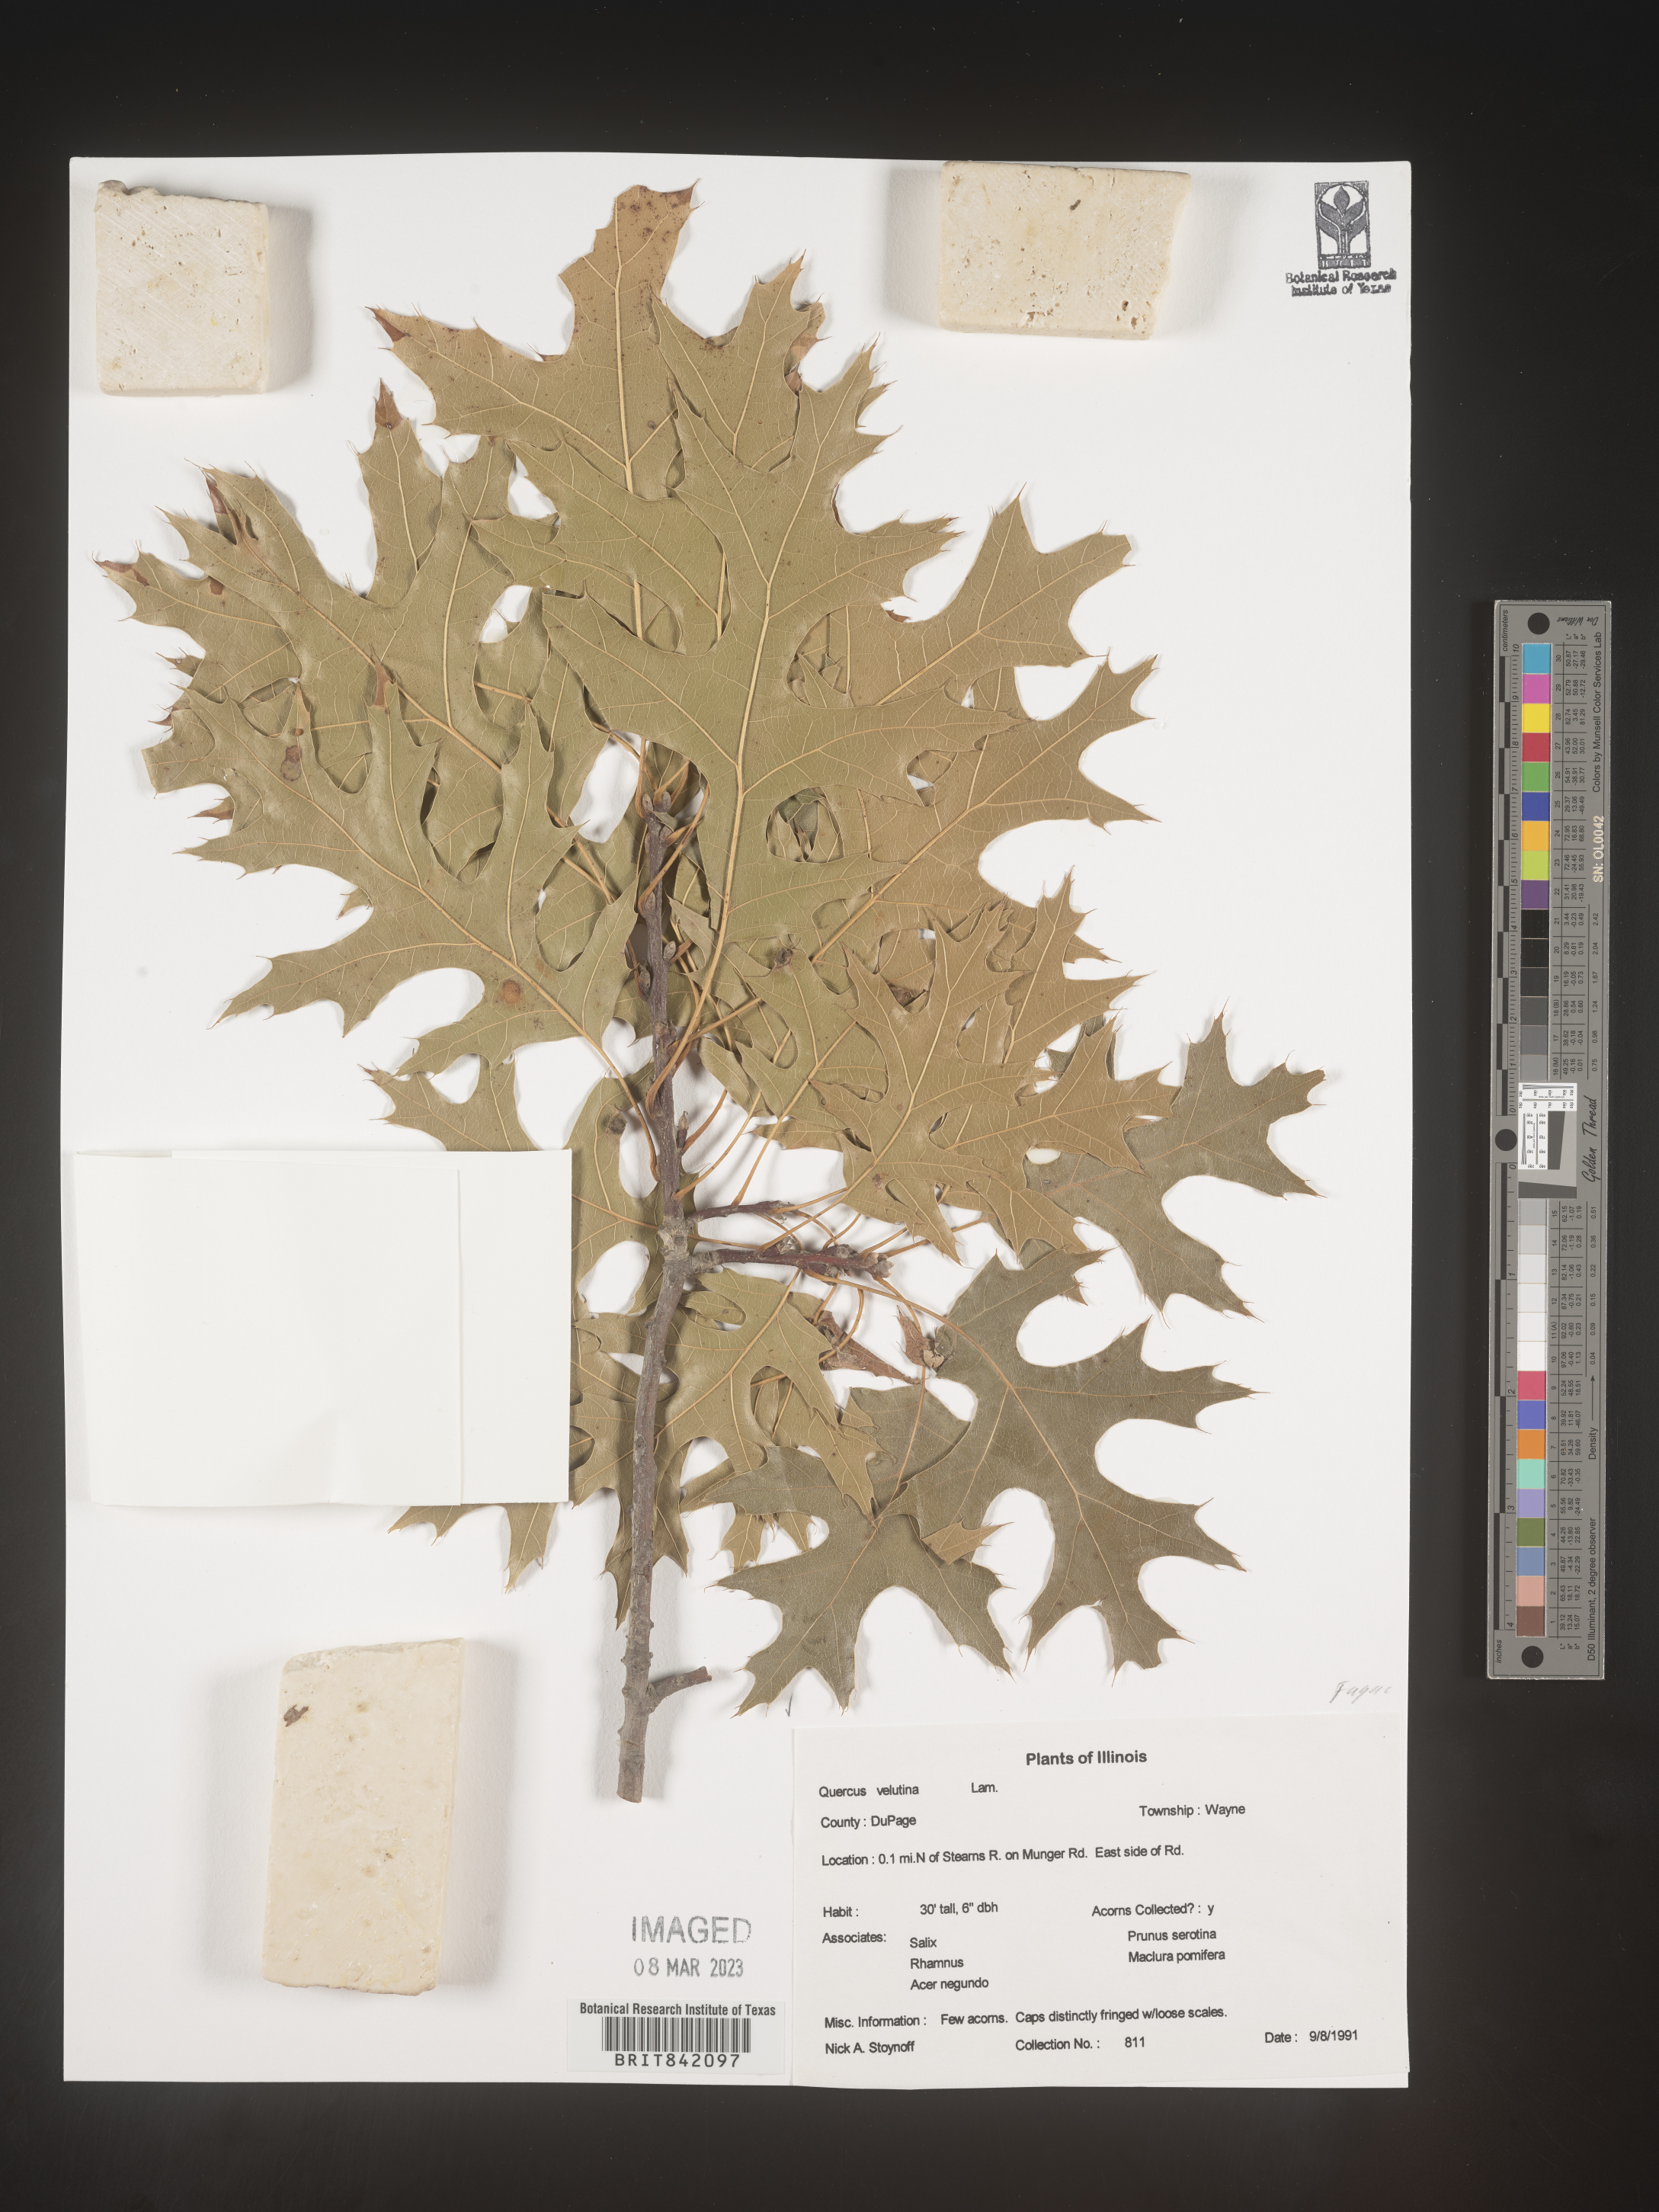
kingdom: Plantae
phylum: Tracheophyta
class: Magnoliopsida
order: Fagales
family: Fagaceae
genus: Quercus
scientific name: Quercus velutina
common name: Black oak
